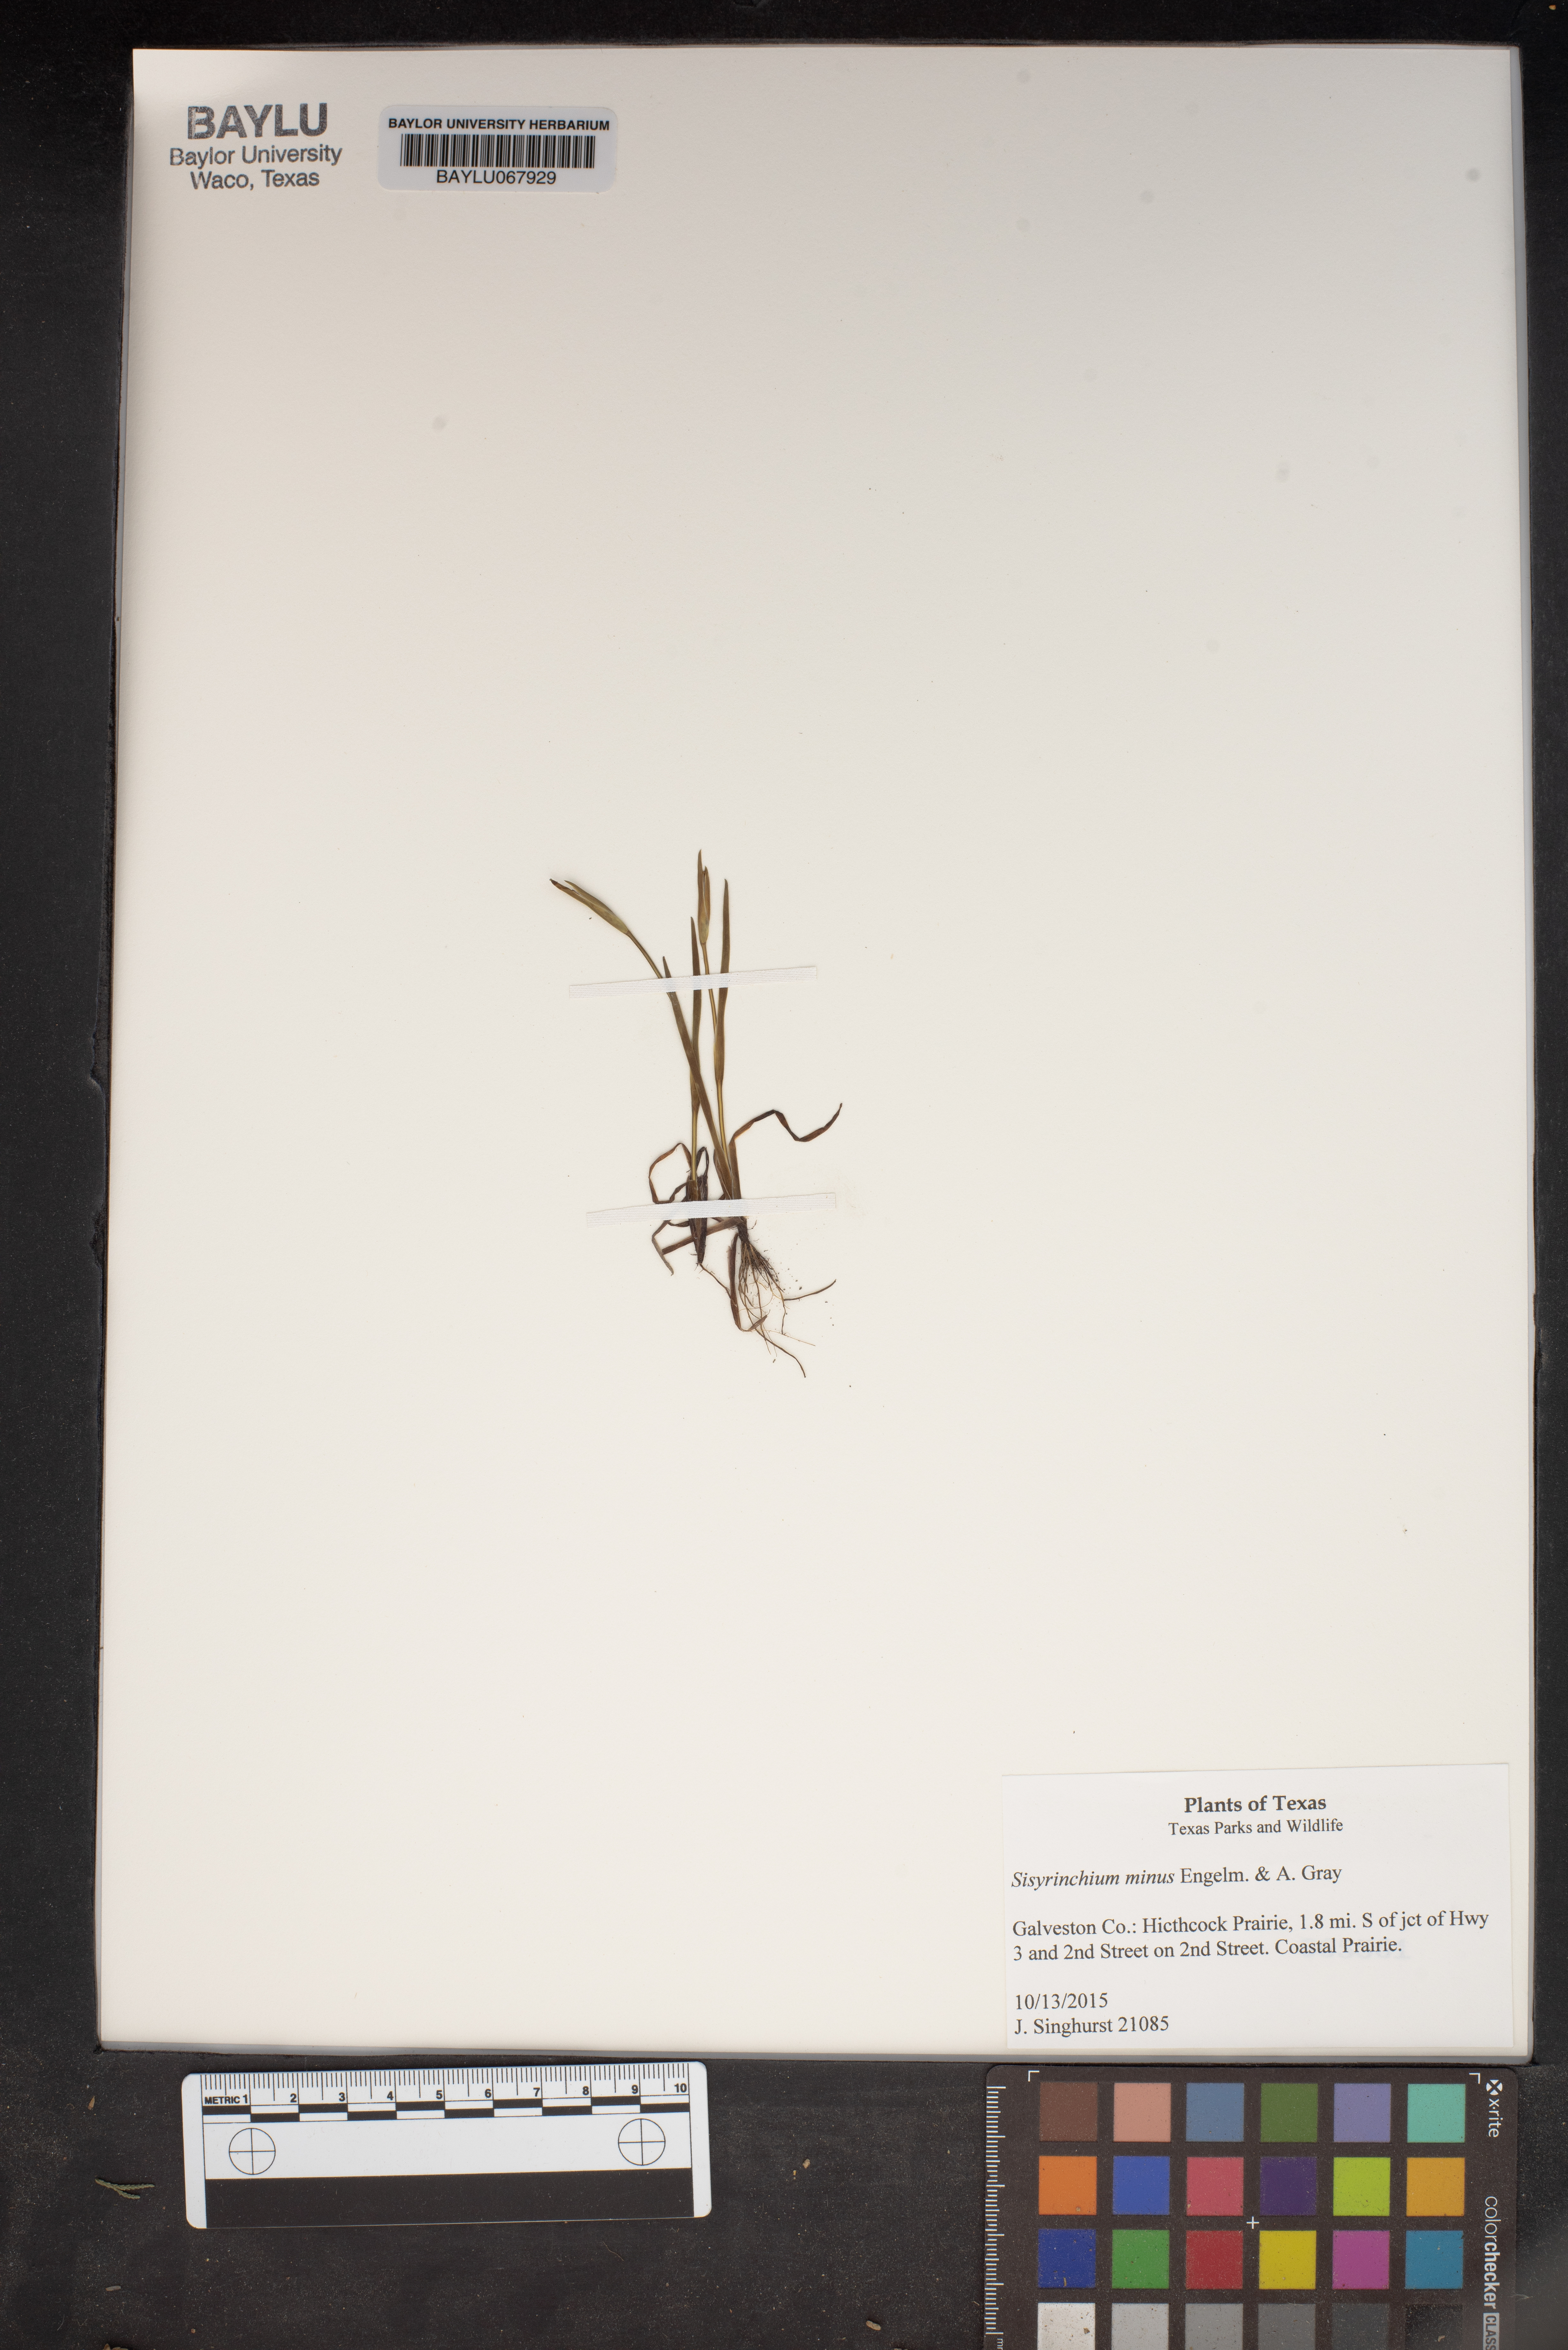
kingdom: Plantae
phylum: Tracheophyta
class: Liliopsida
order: Asparagales
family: Iridaceae
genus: Sisyrinchium
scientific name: Sisyrinchium minus
